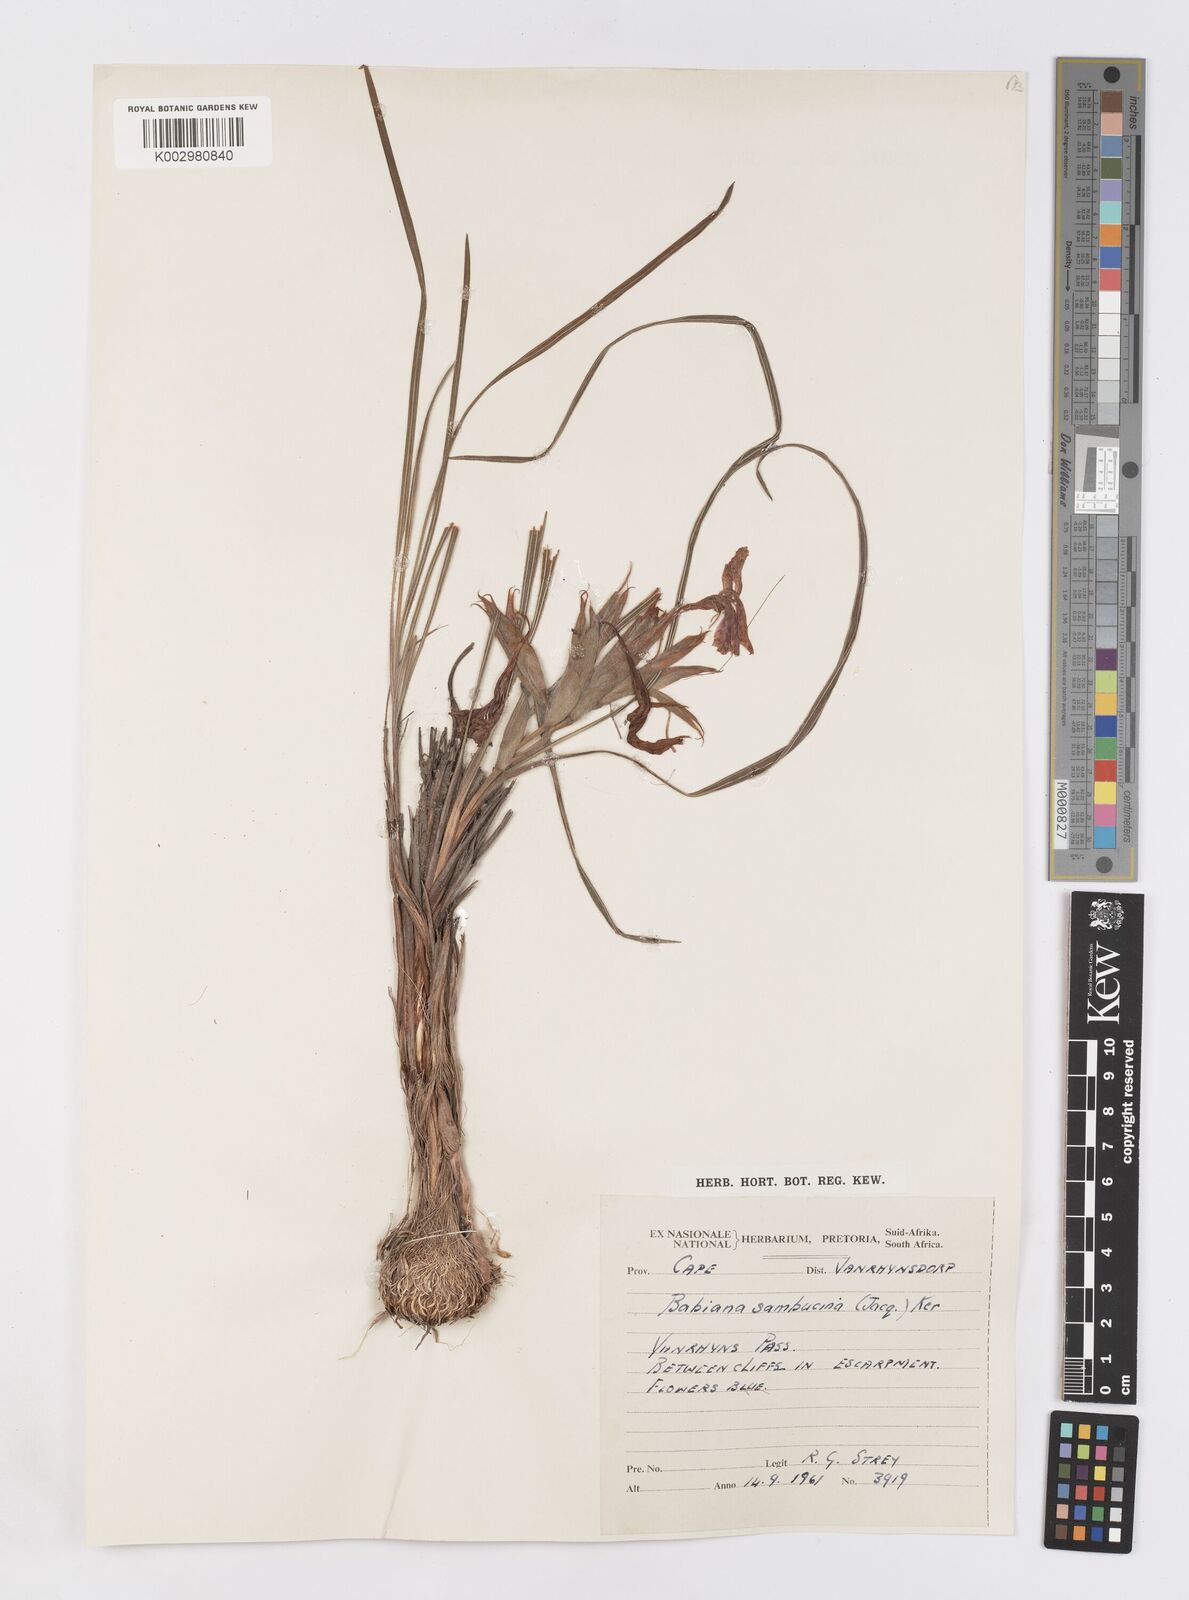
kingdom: Plantae
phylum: Tracheophyta
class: Liliopsida
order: Asparagales
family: Iridaceae
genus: Babiana
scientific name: Babiana sambucina
